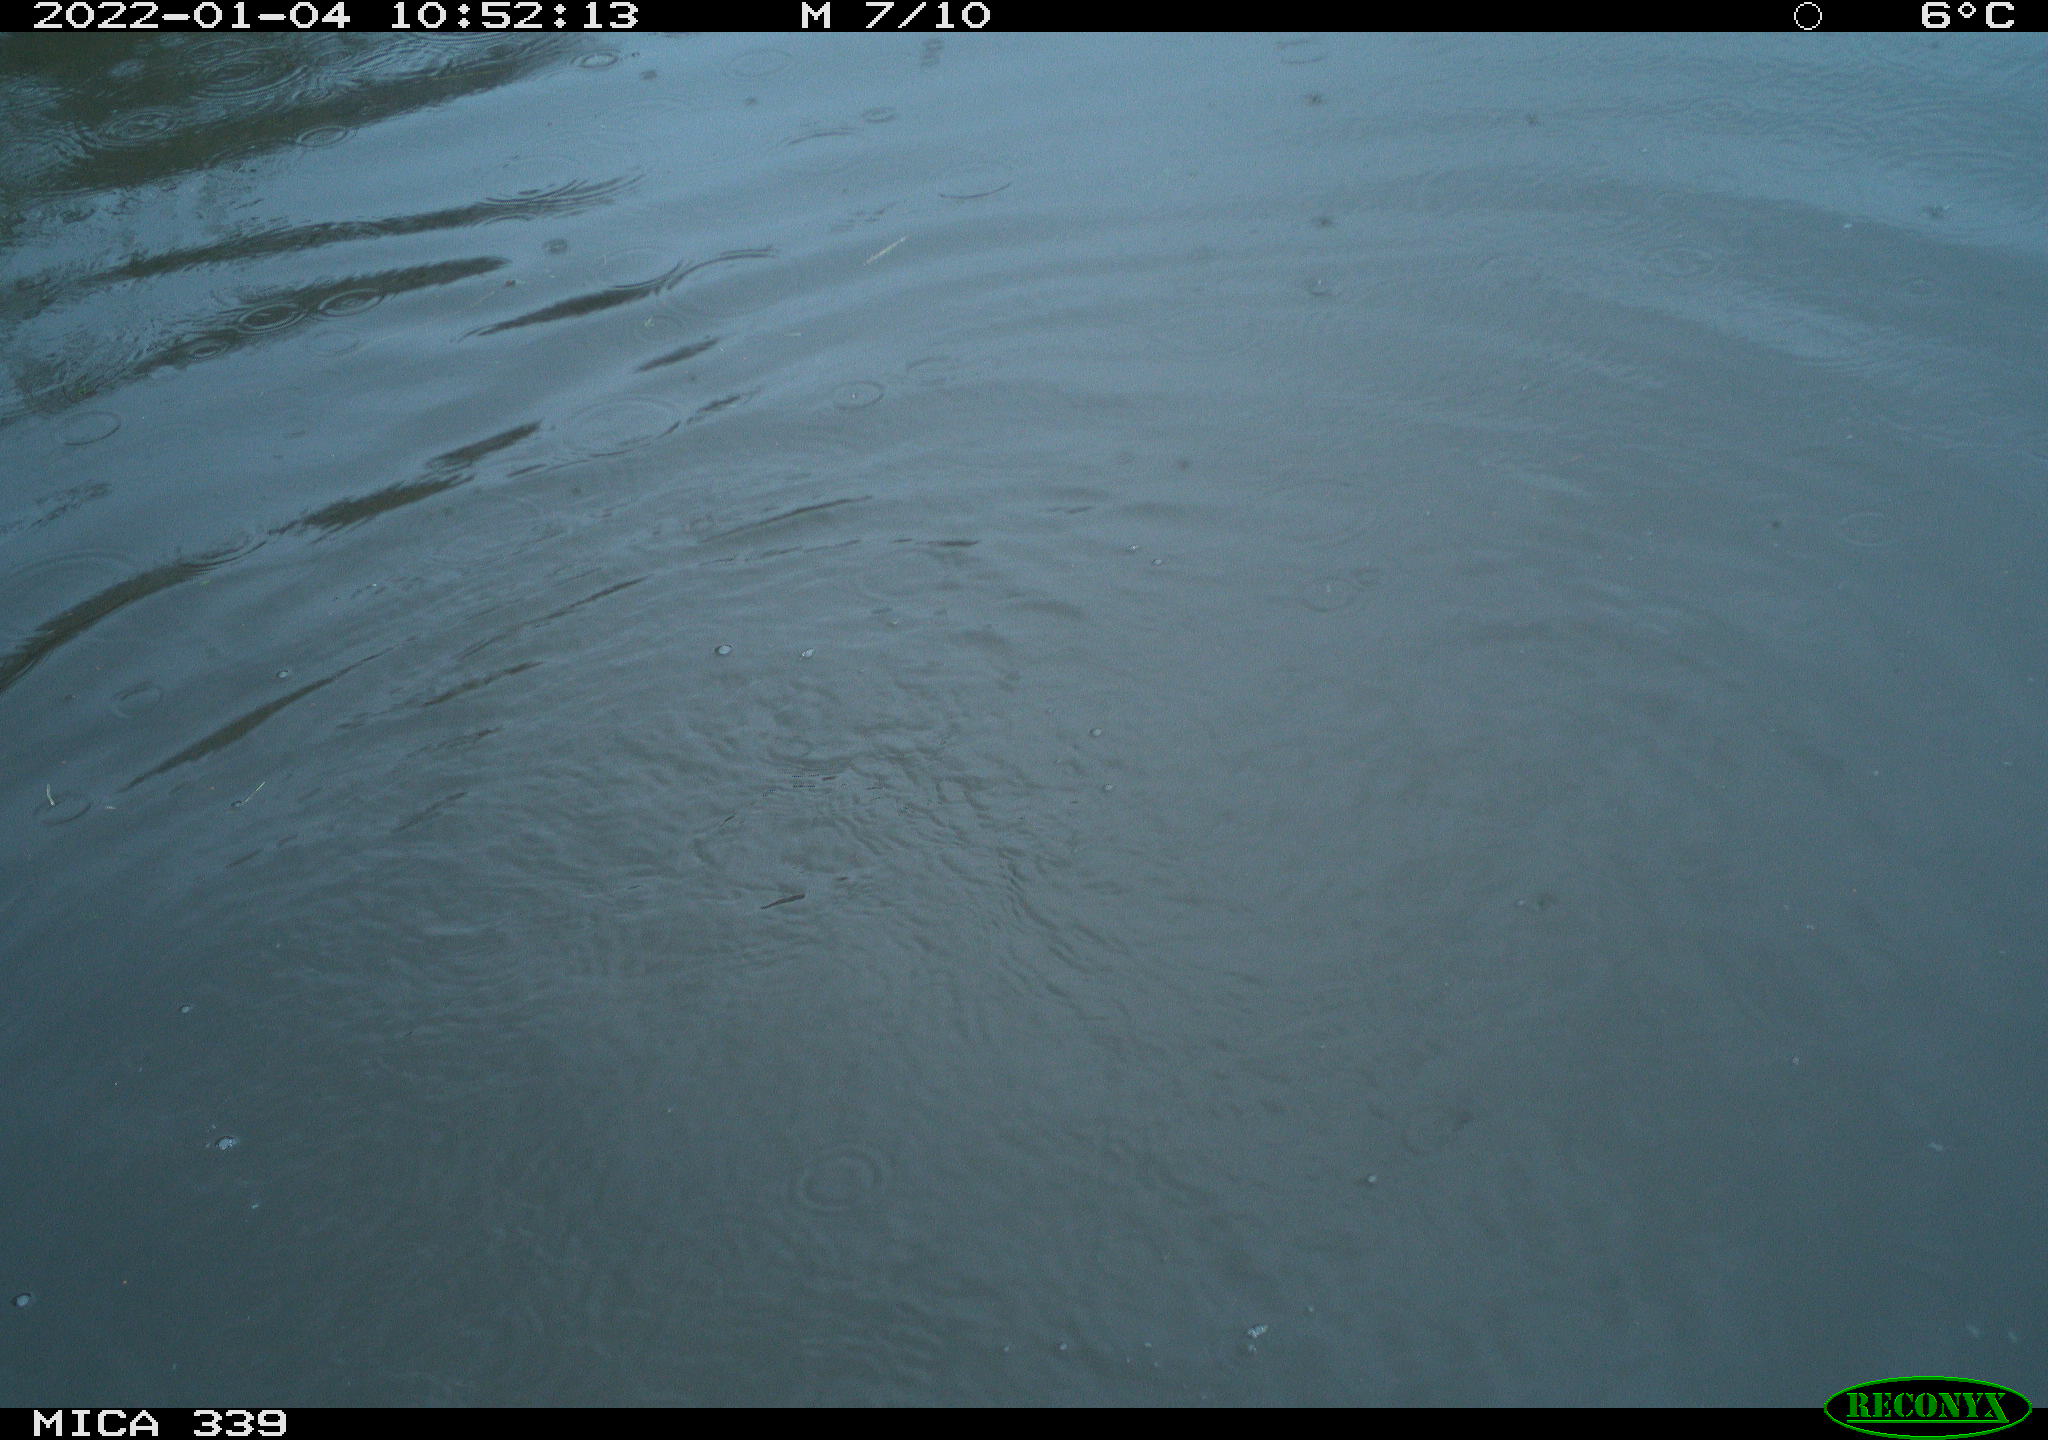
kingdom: Animalia
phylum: Chordata
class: Aves
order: Suliformes
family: Phalacrocoracidae
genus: Phalacrocorax
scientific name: Phalacrocorax carbo
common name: Great cormorant
